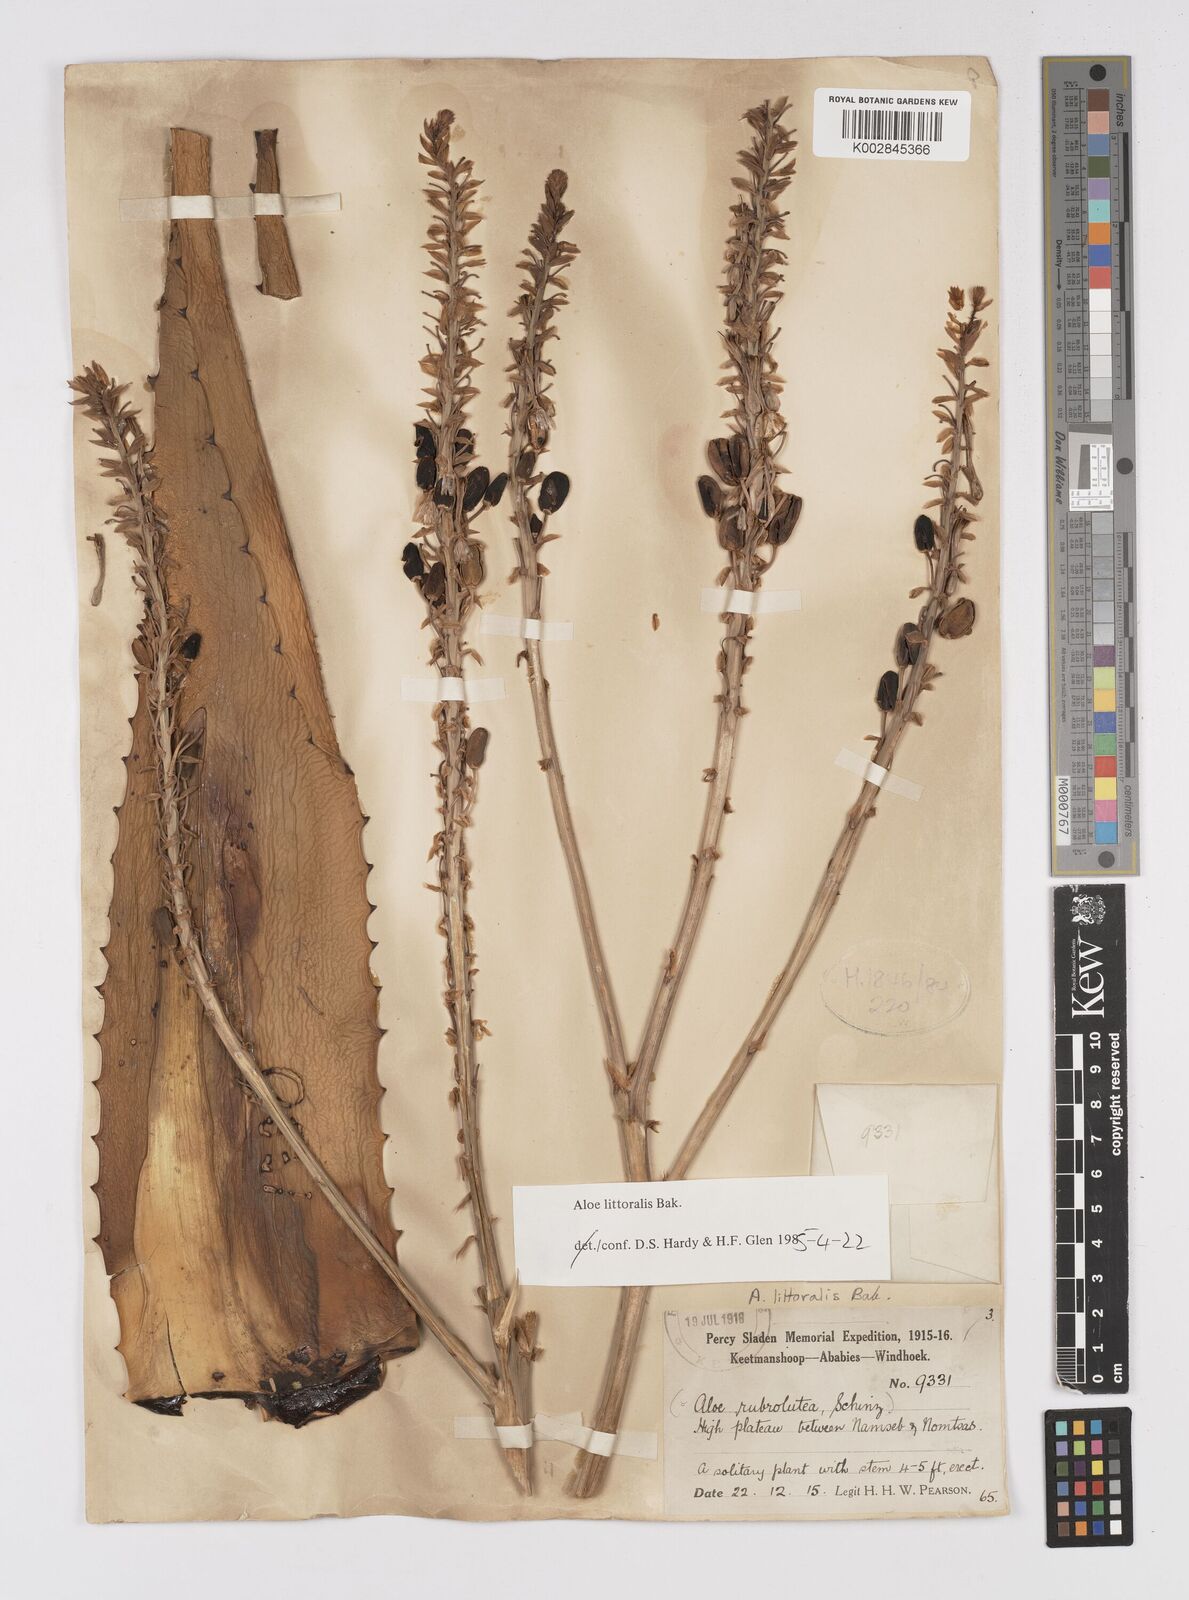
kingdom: Plantae
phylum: Tracheophyta
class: Liliopsida
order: Asparagales
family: Asphodelaceae
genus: Aloe
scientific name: Aloe littoralis
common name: Luanda tree aloe
